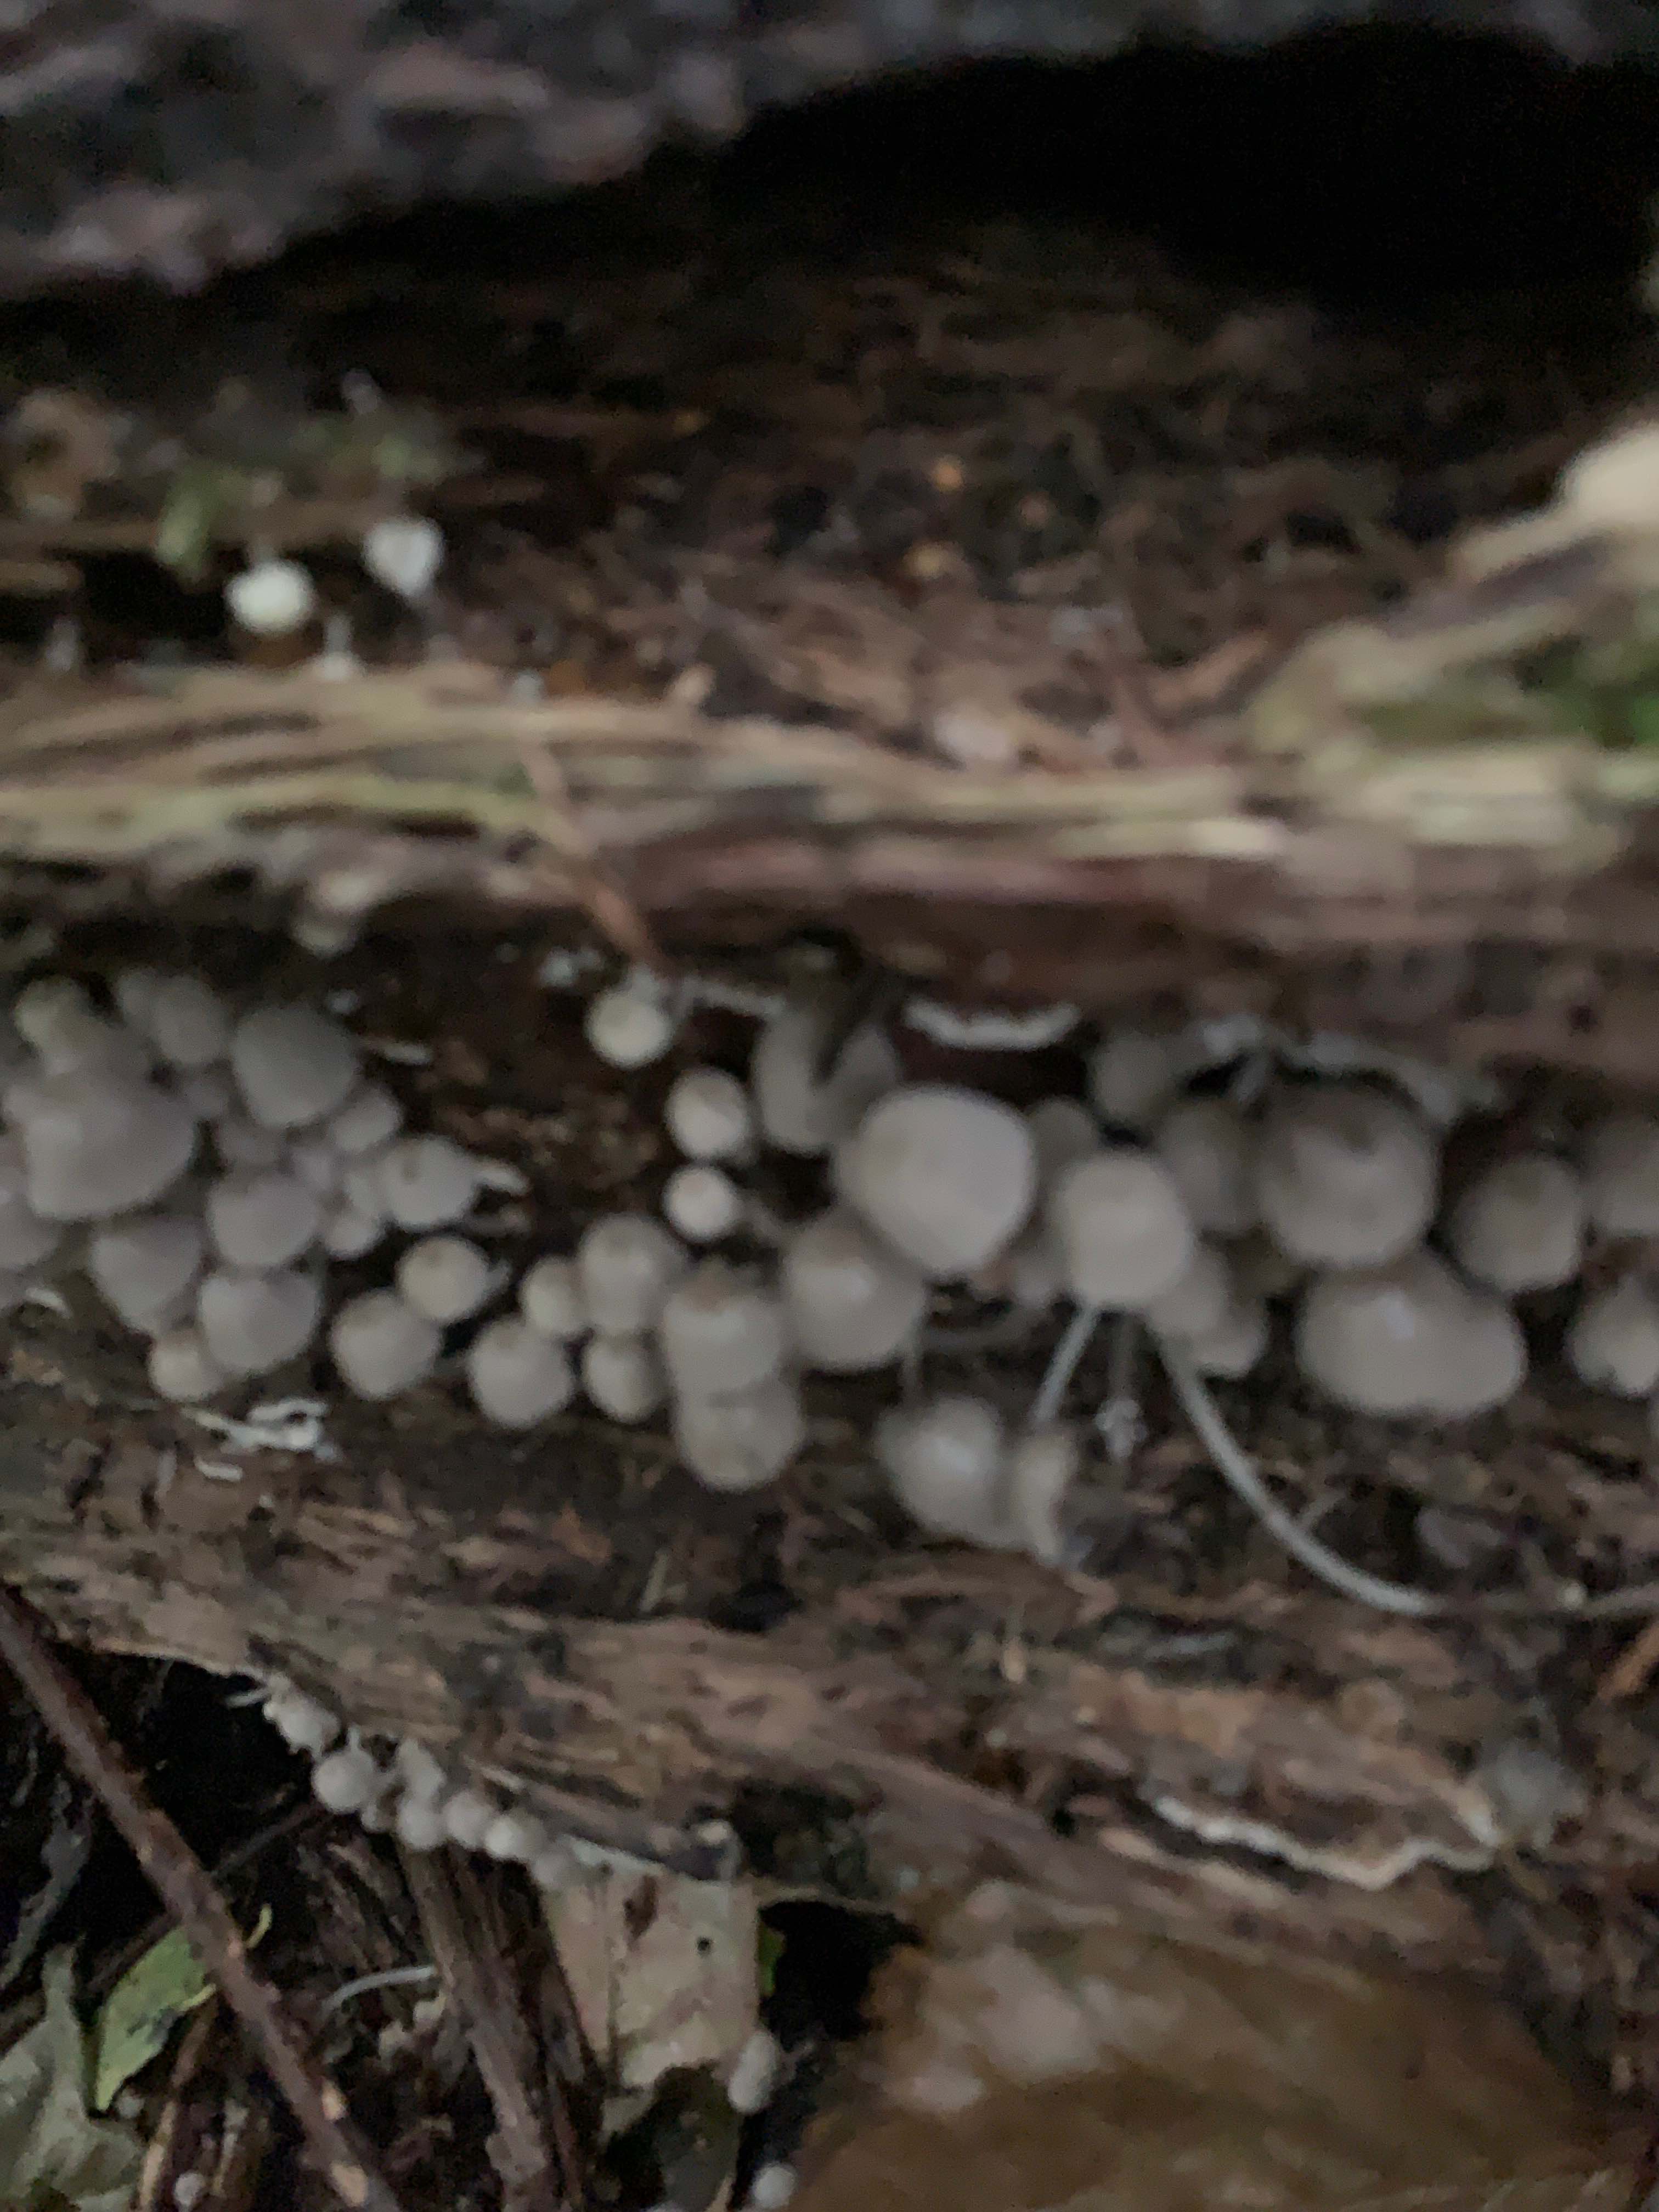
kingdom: Fungi
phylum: Basidiomycota
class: Agaricomycetes
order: Agaricales
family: Psathyrellaceae
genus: Coprinellus
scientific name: Coprinellus disseminatus
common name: bredsået blækhat
